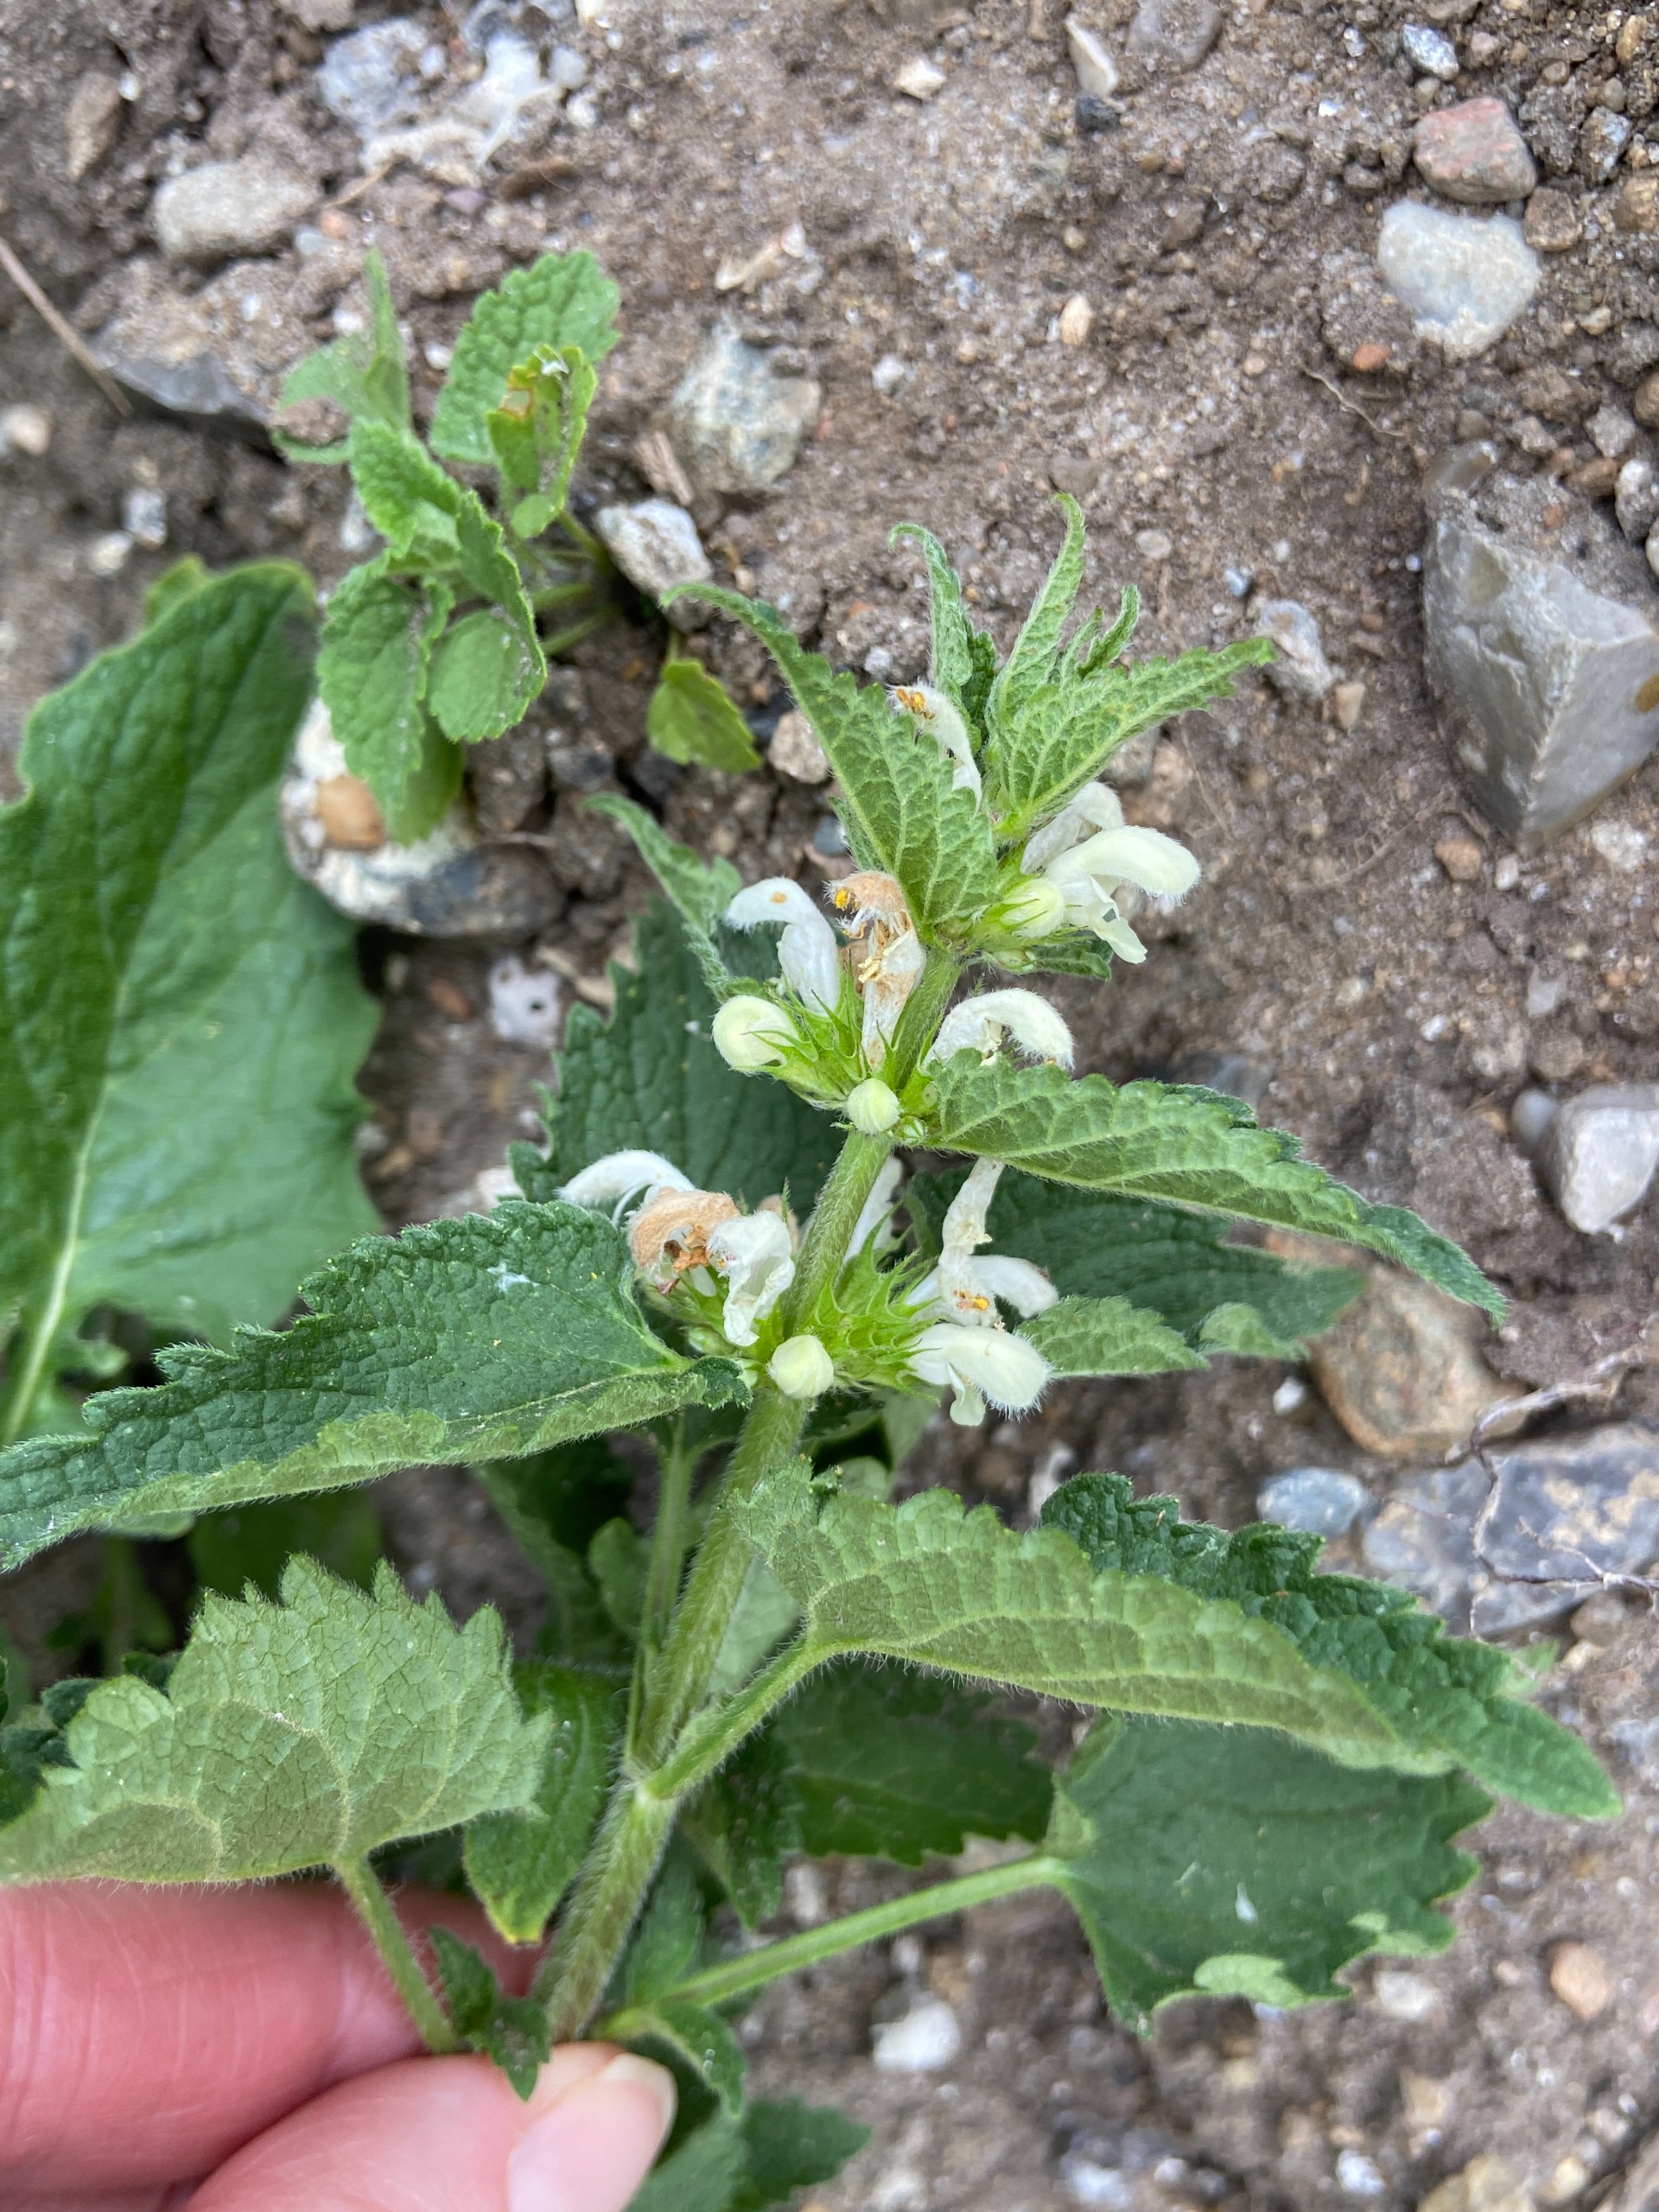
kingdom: Plantae
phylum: Tracheophyta
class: Magnoliopsida
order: Lamiales
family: Lamiaceae
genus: Lamium
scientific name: Lamium album
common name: Døvnælde
